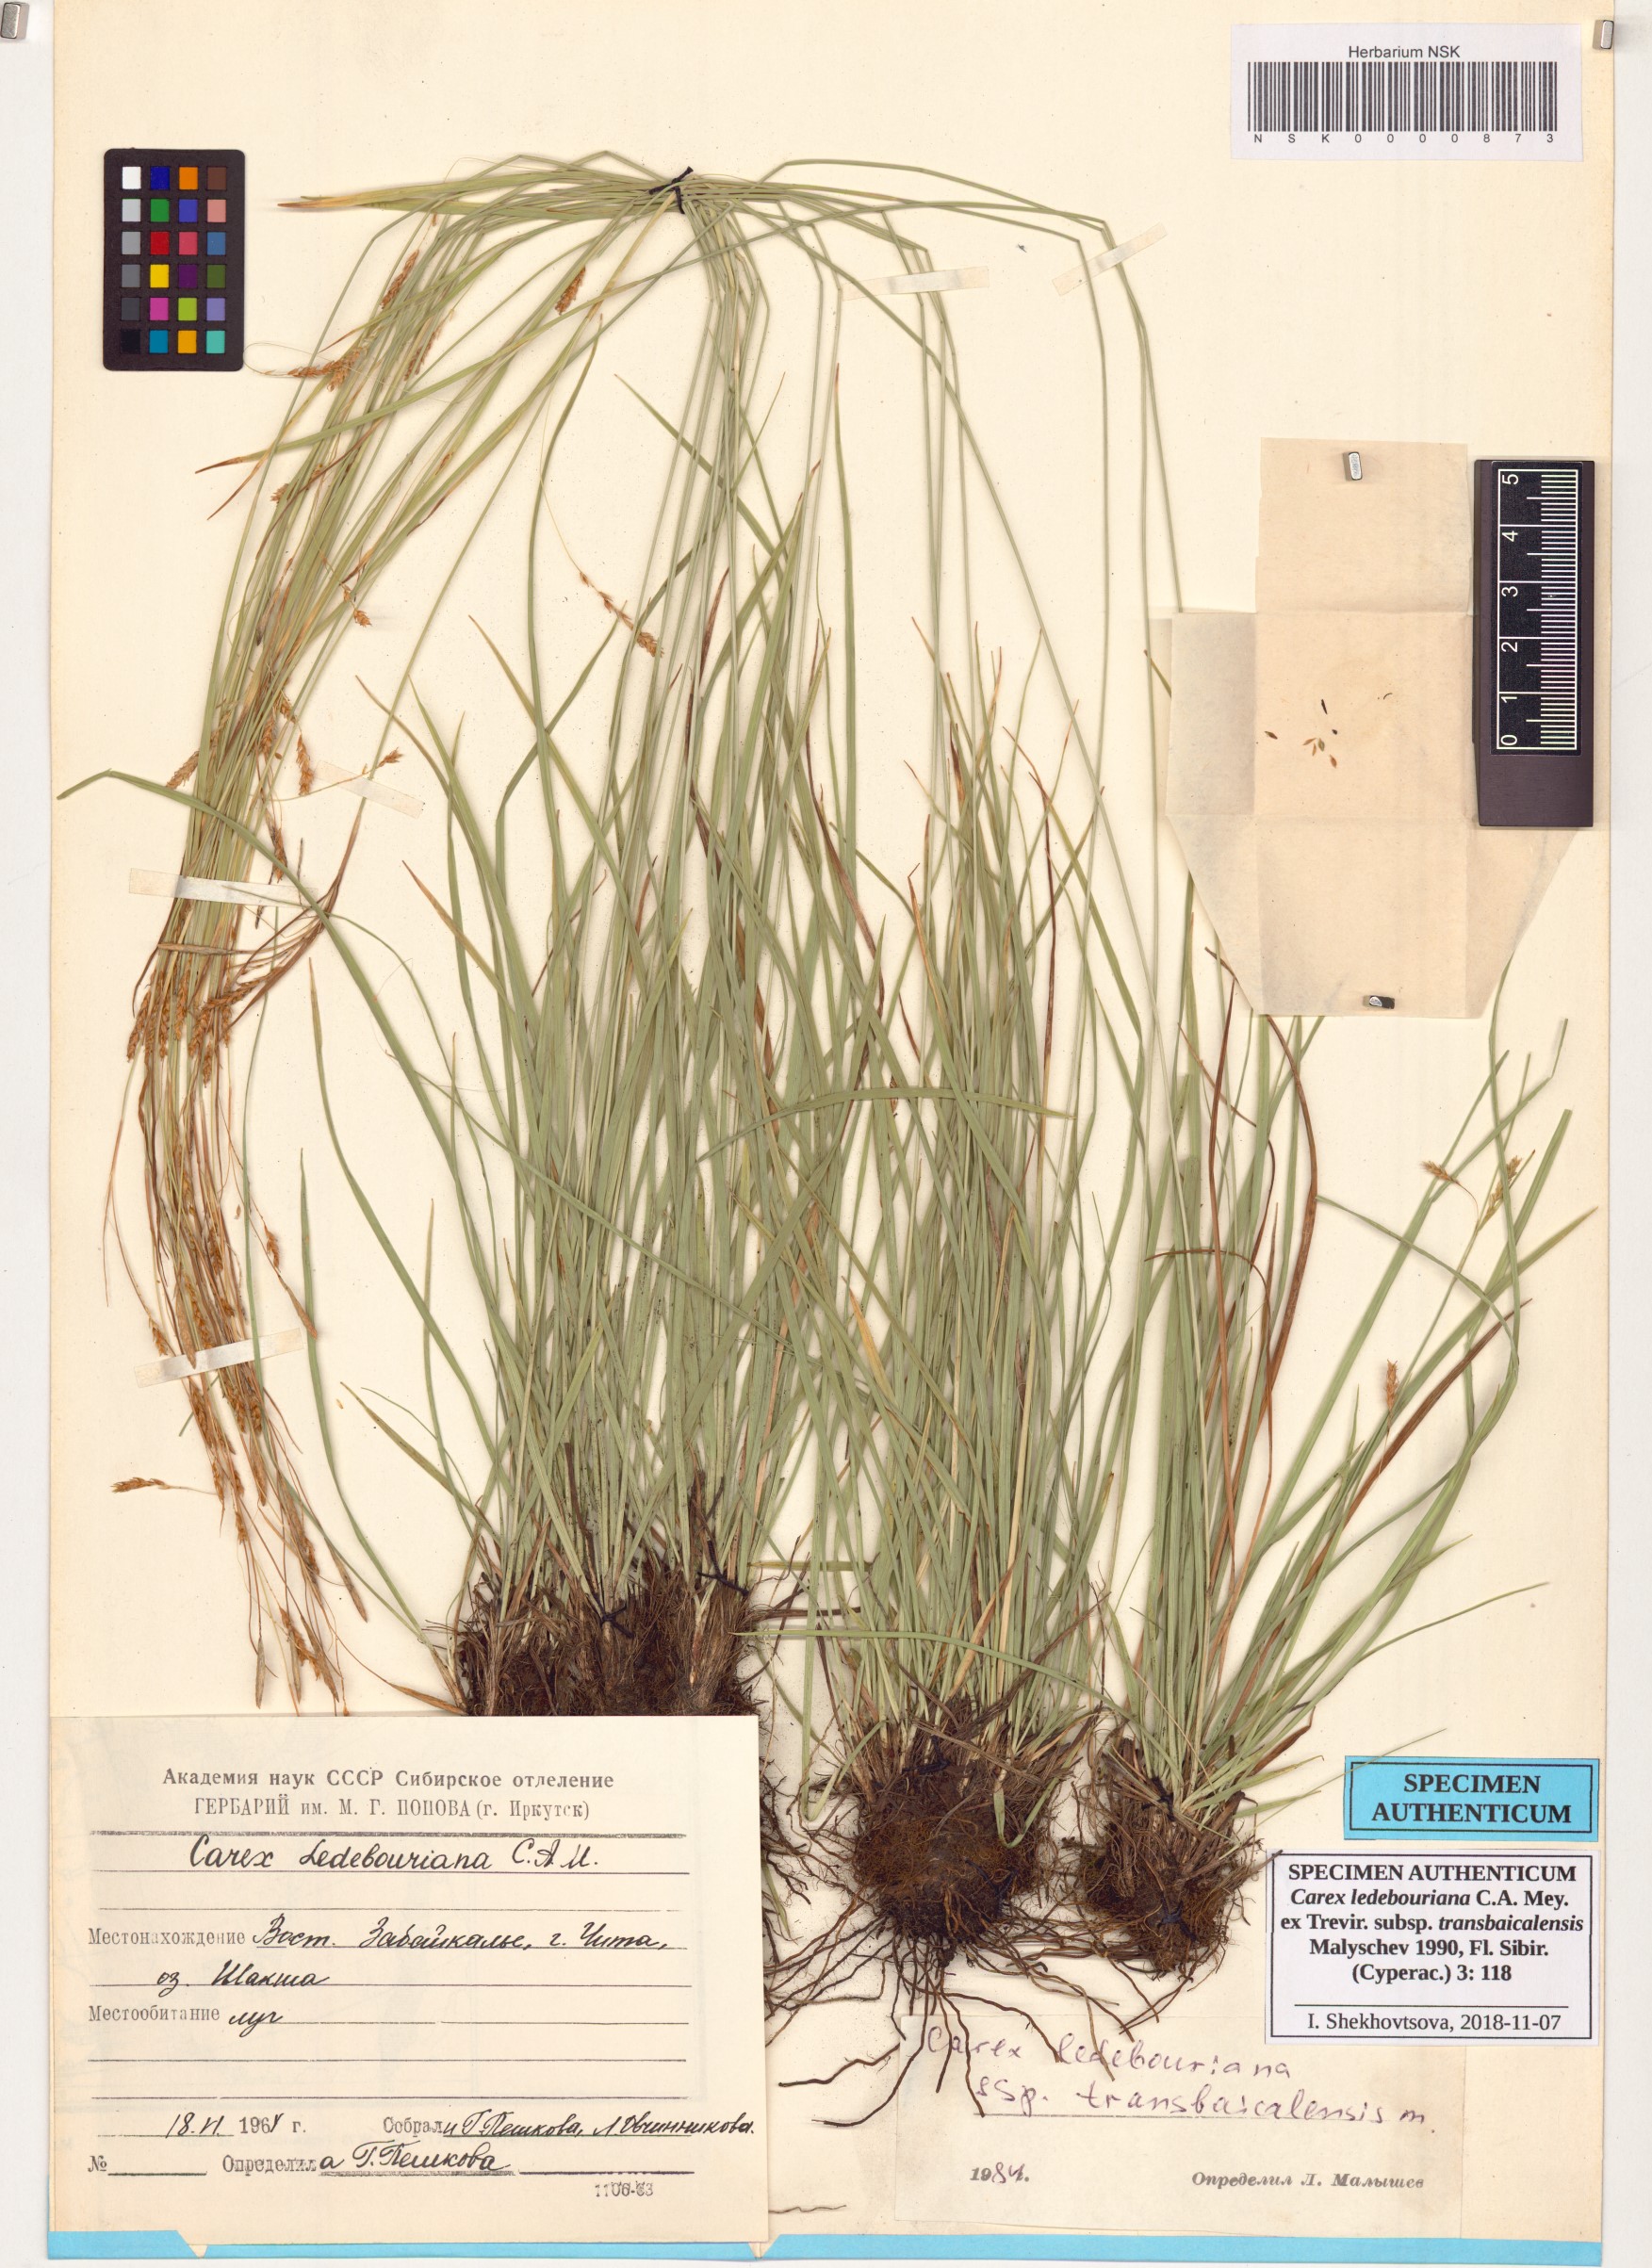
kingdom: Plantae
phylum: Tracheophyta
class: Liliopsida
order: Poales
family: Cyperaceae
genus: Carex
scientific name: Carex ledebouriana
